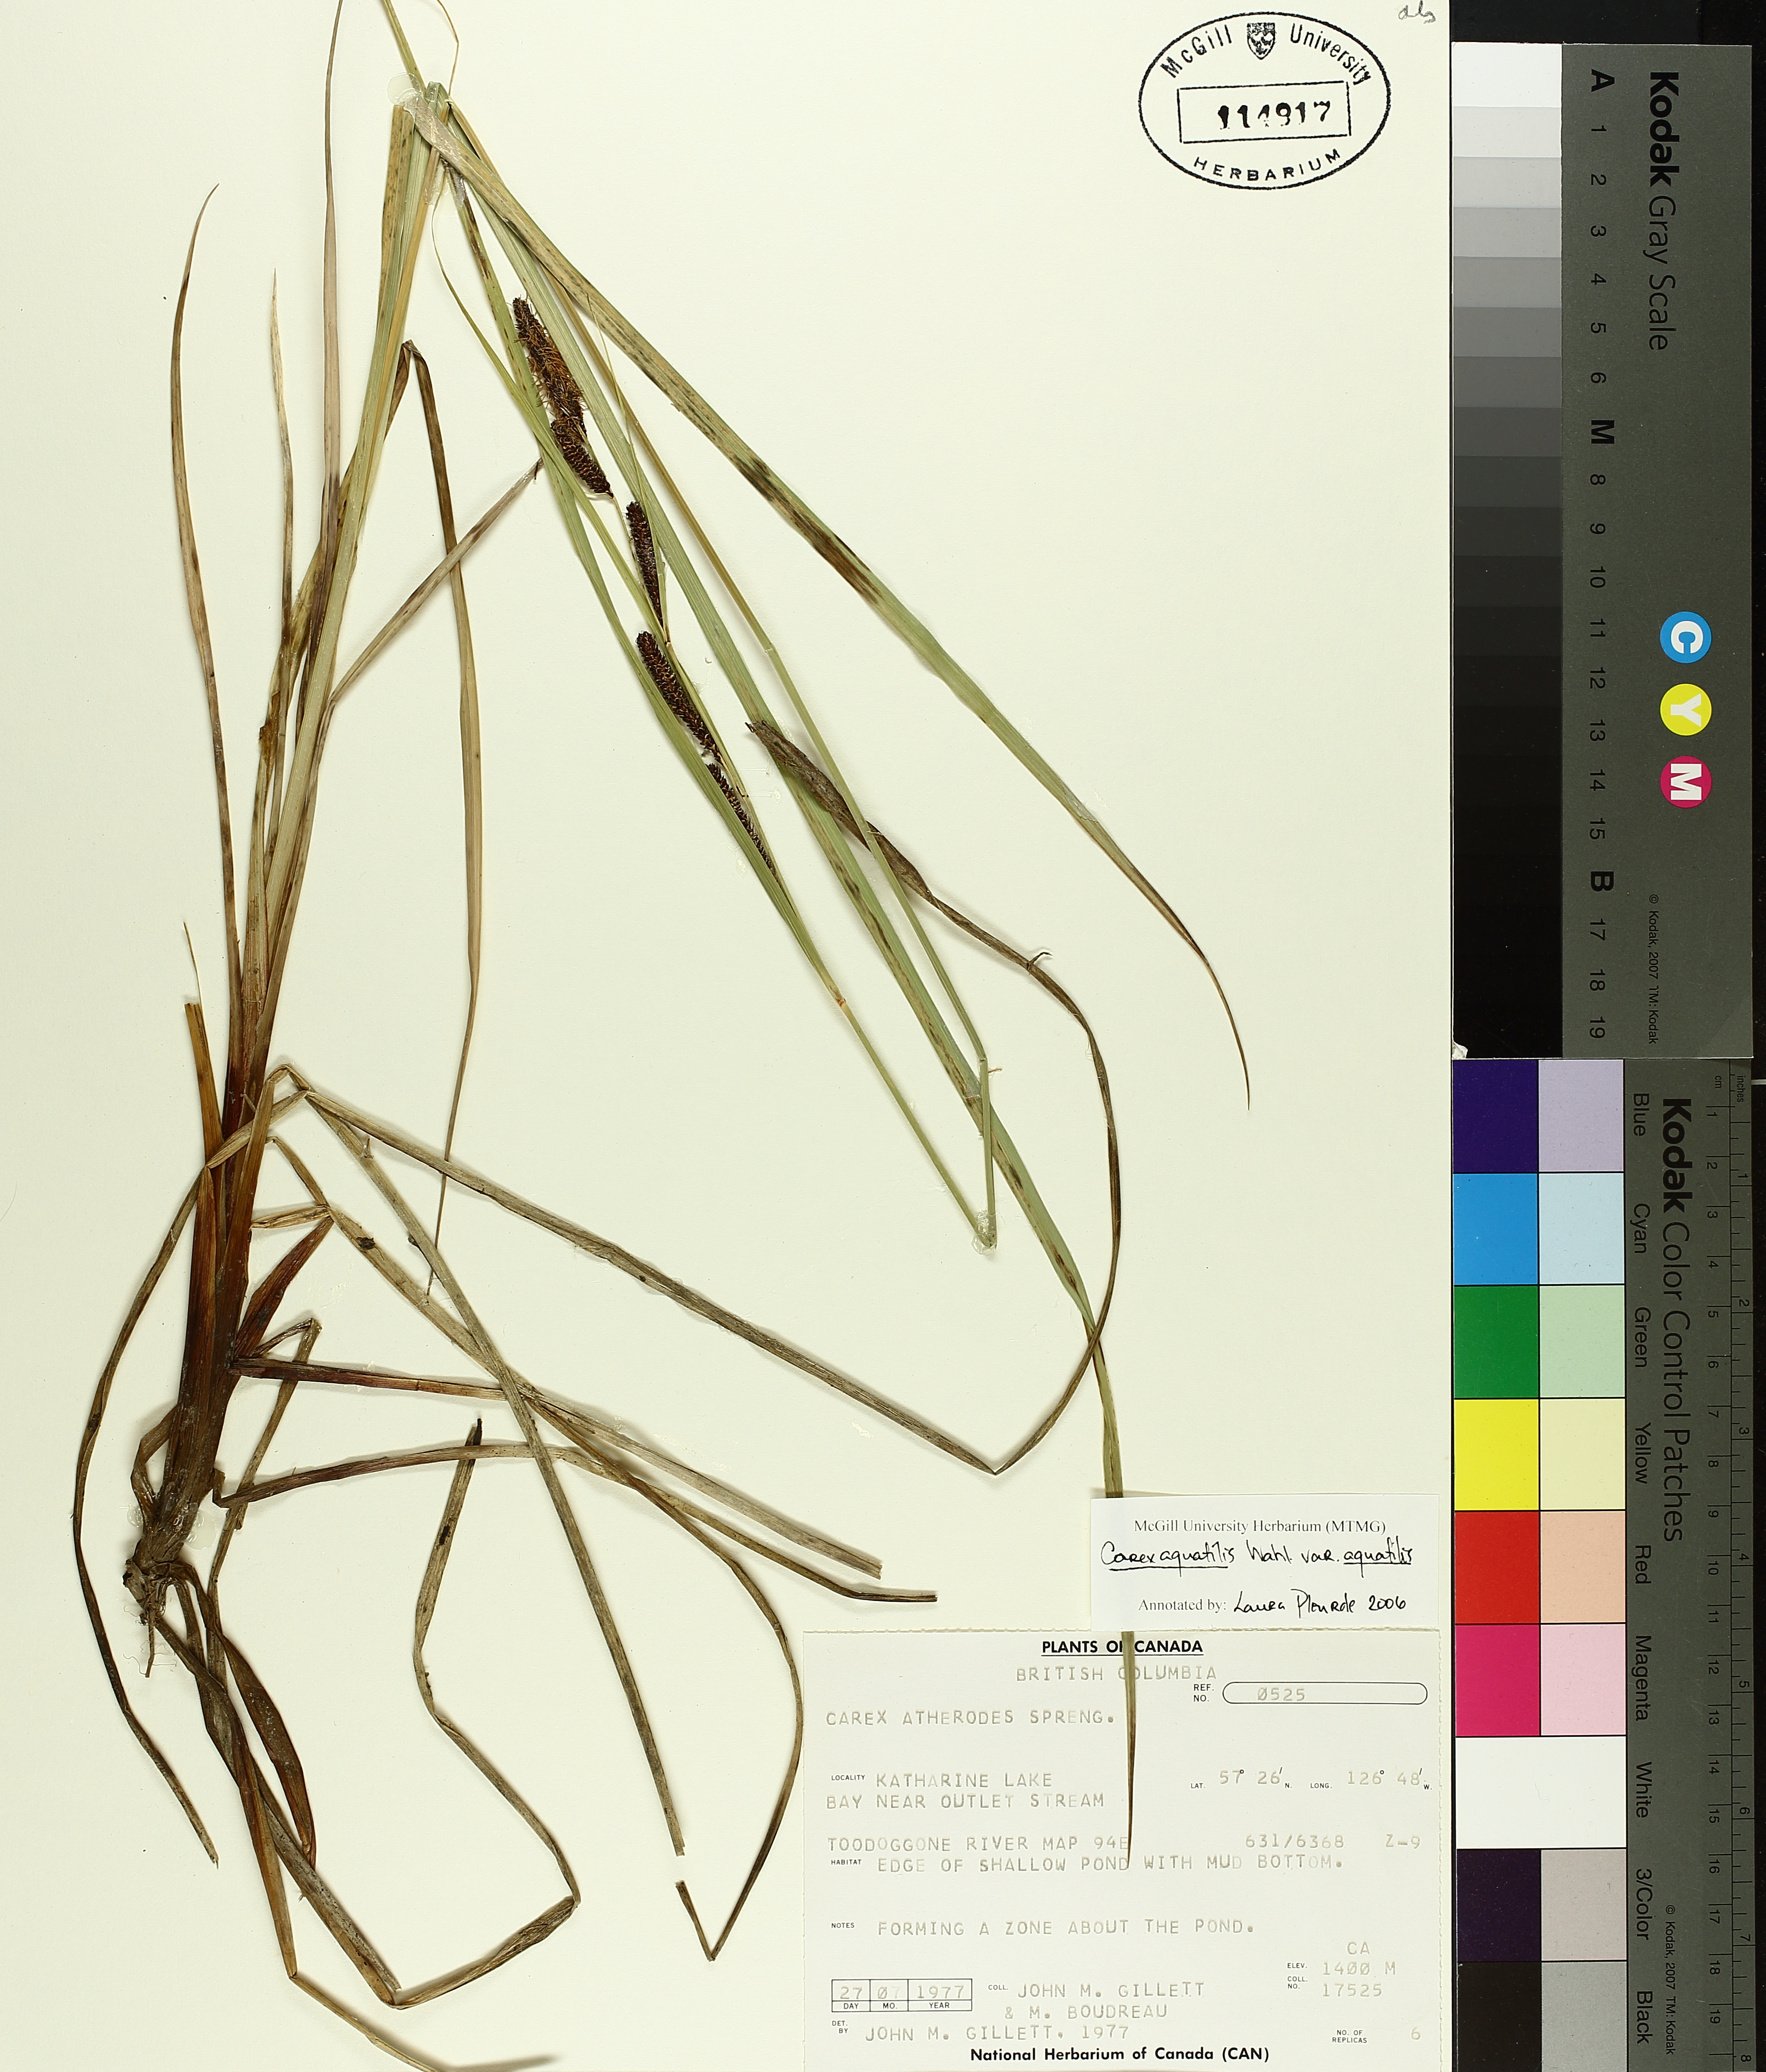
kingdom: Plantae
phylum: Tracheophyta
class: Liliopsida
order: Poales
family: Cyperaceae
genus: Carex
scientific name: Carex aquatilis
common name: Water sedge
